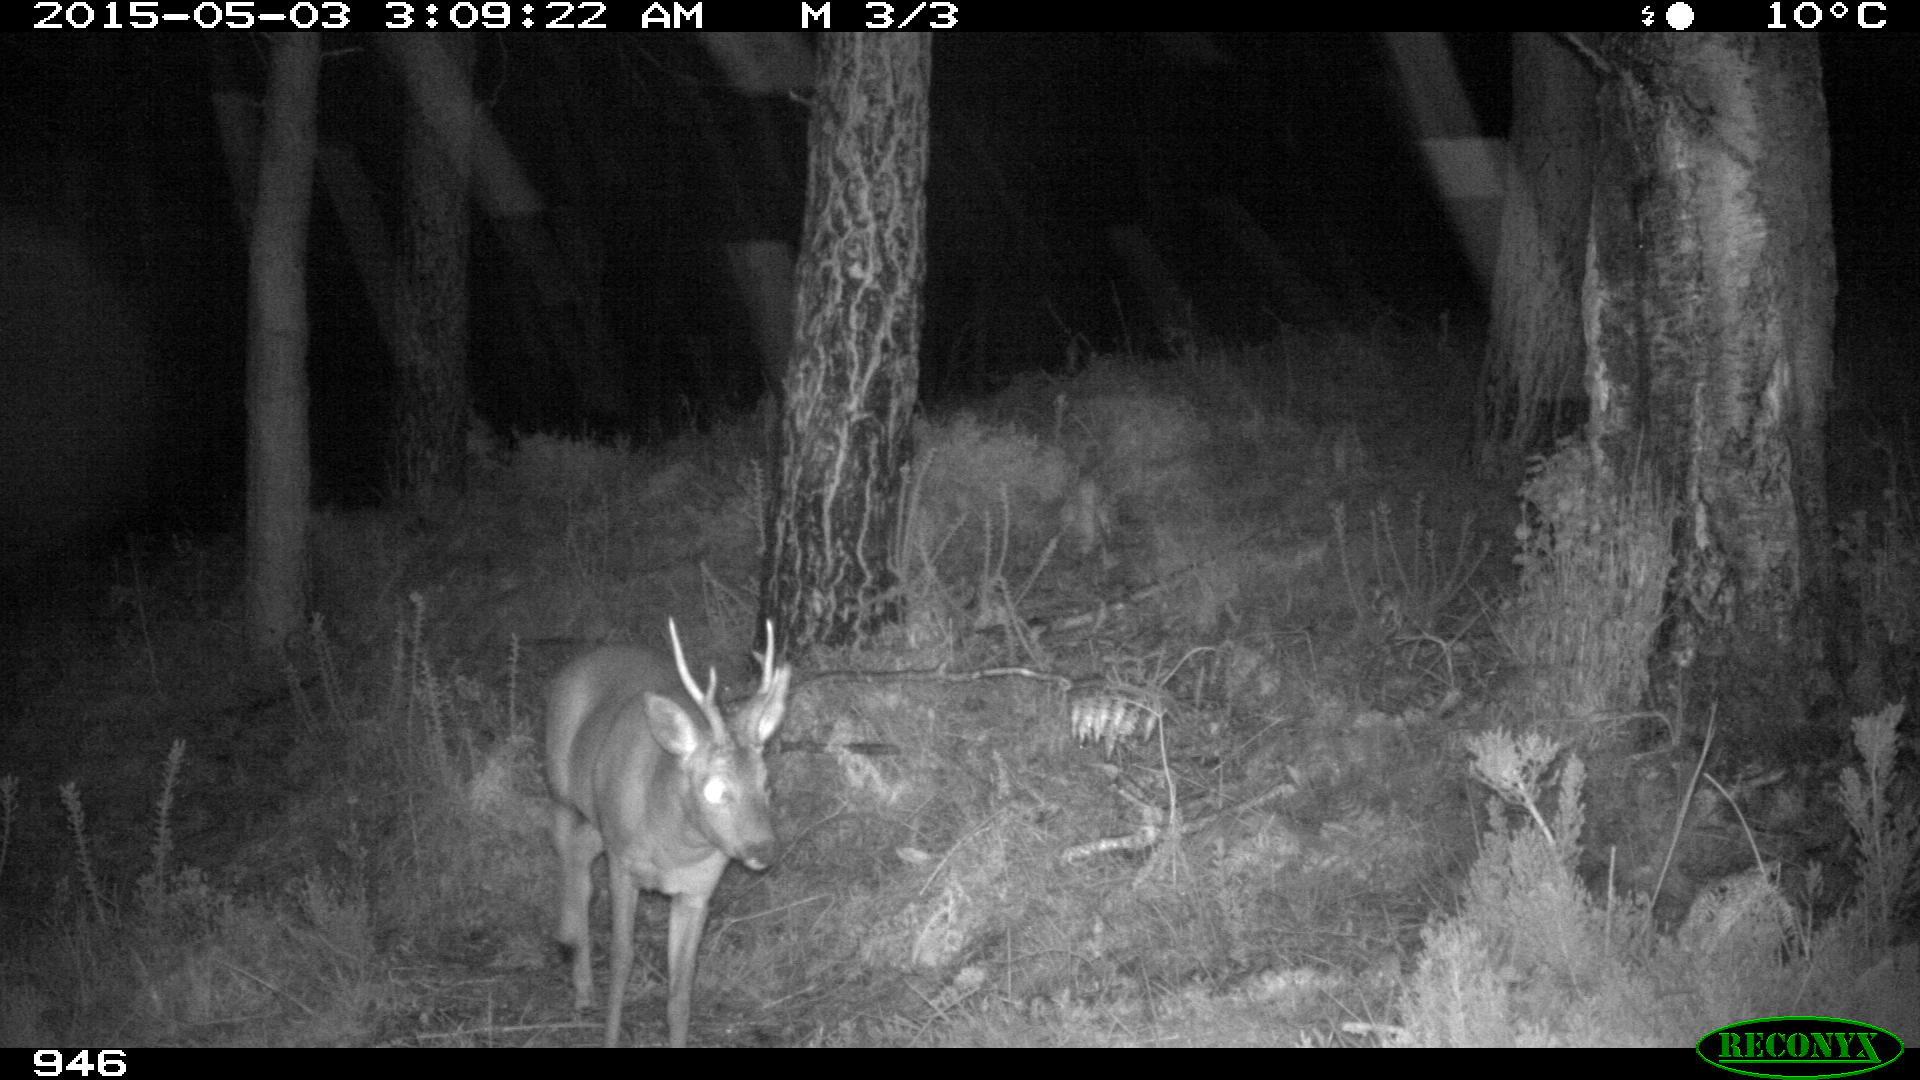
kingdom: Animalia
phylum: Chordata
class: Mammalia
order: Artiodactyla
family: Cervidae
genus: Capreolus
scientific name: Capreolus capreolus
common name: Western roe deer
